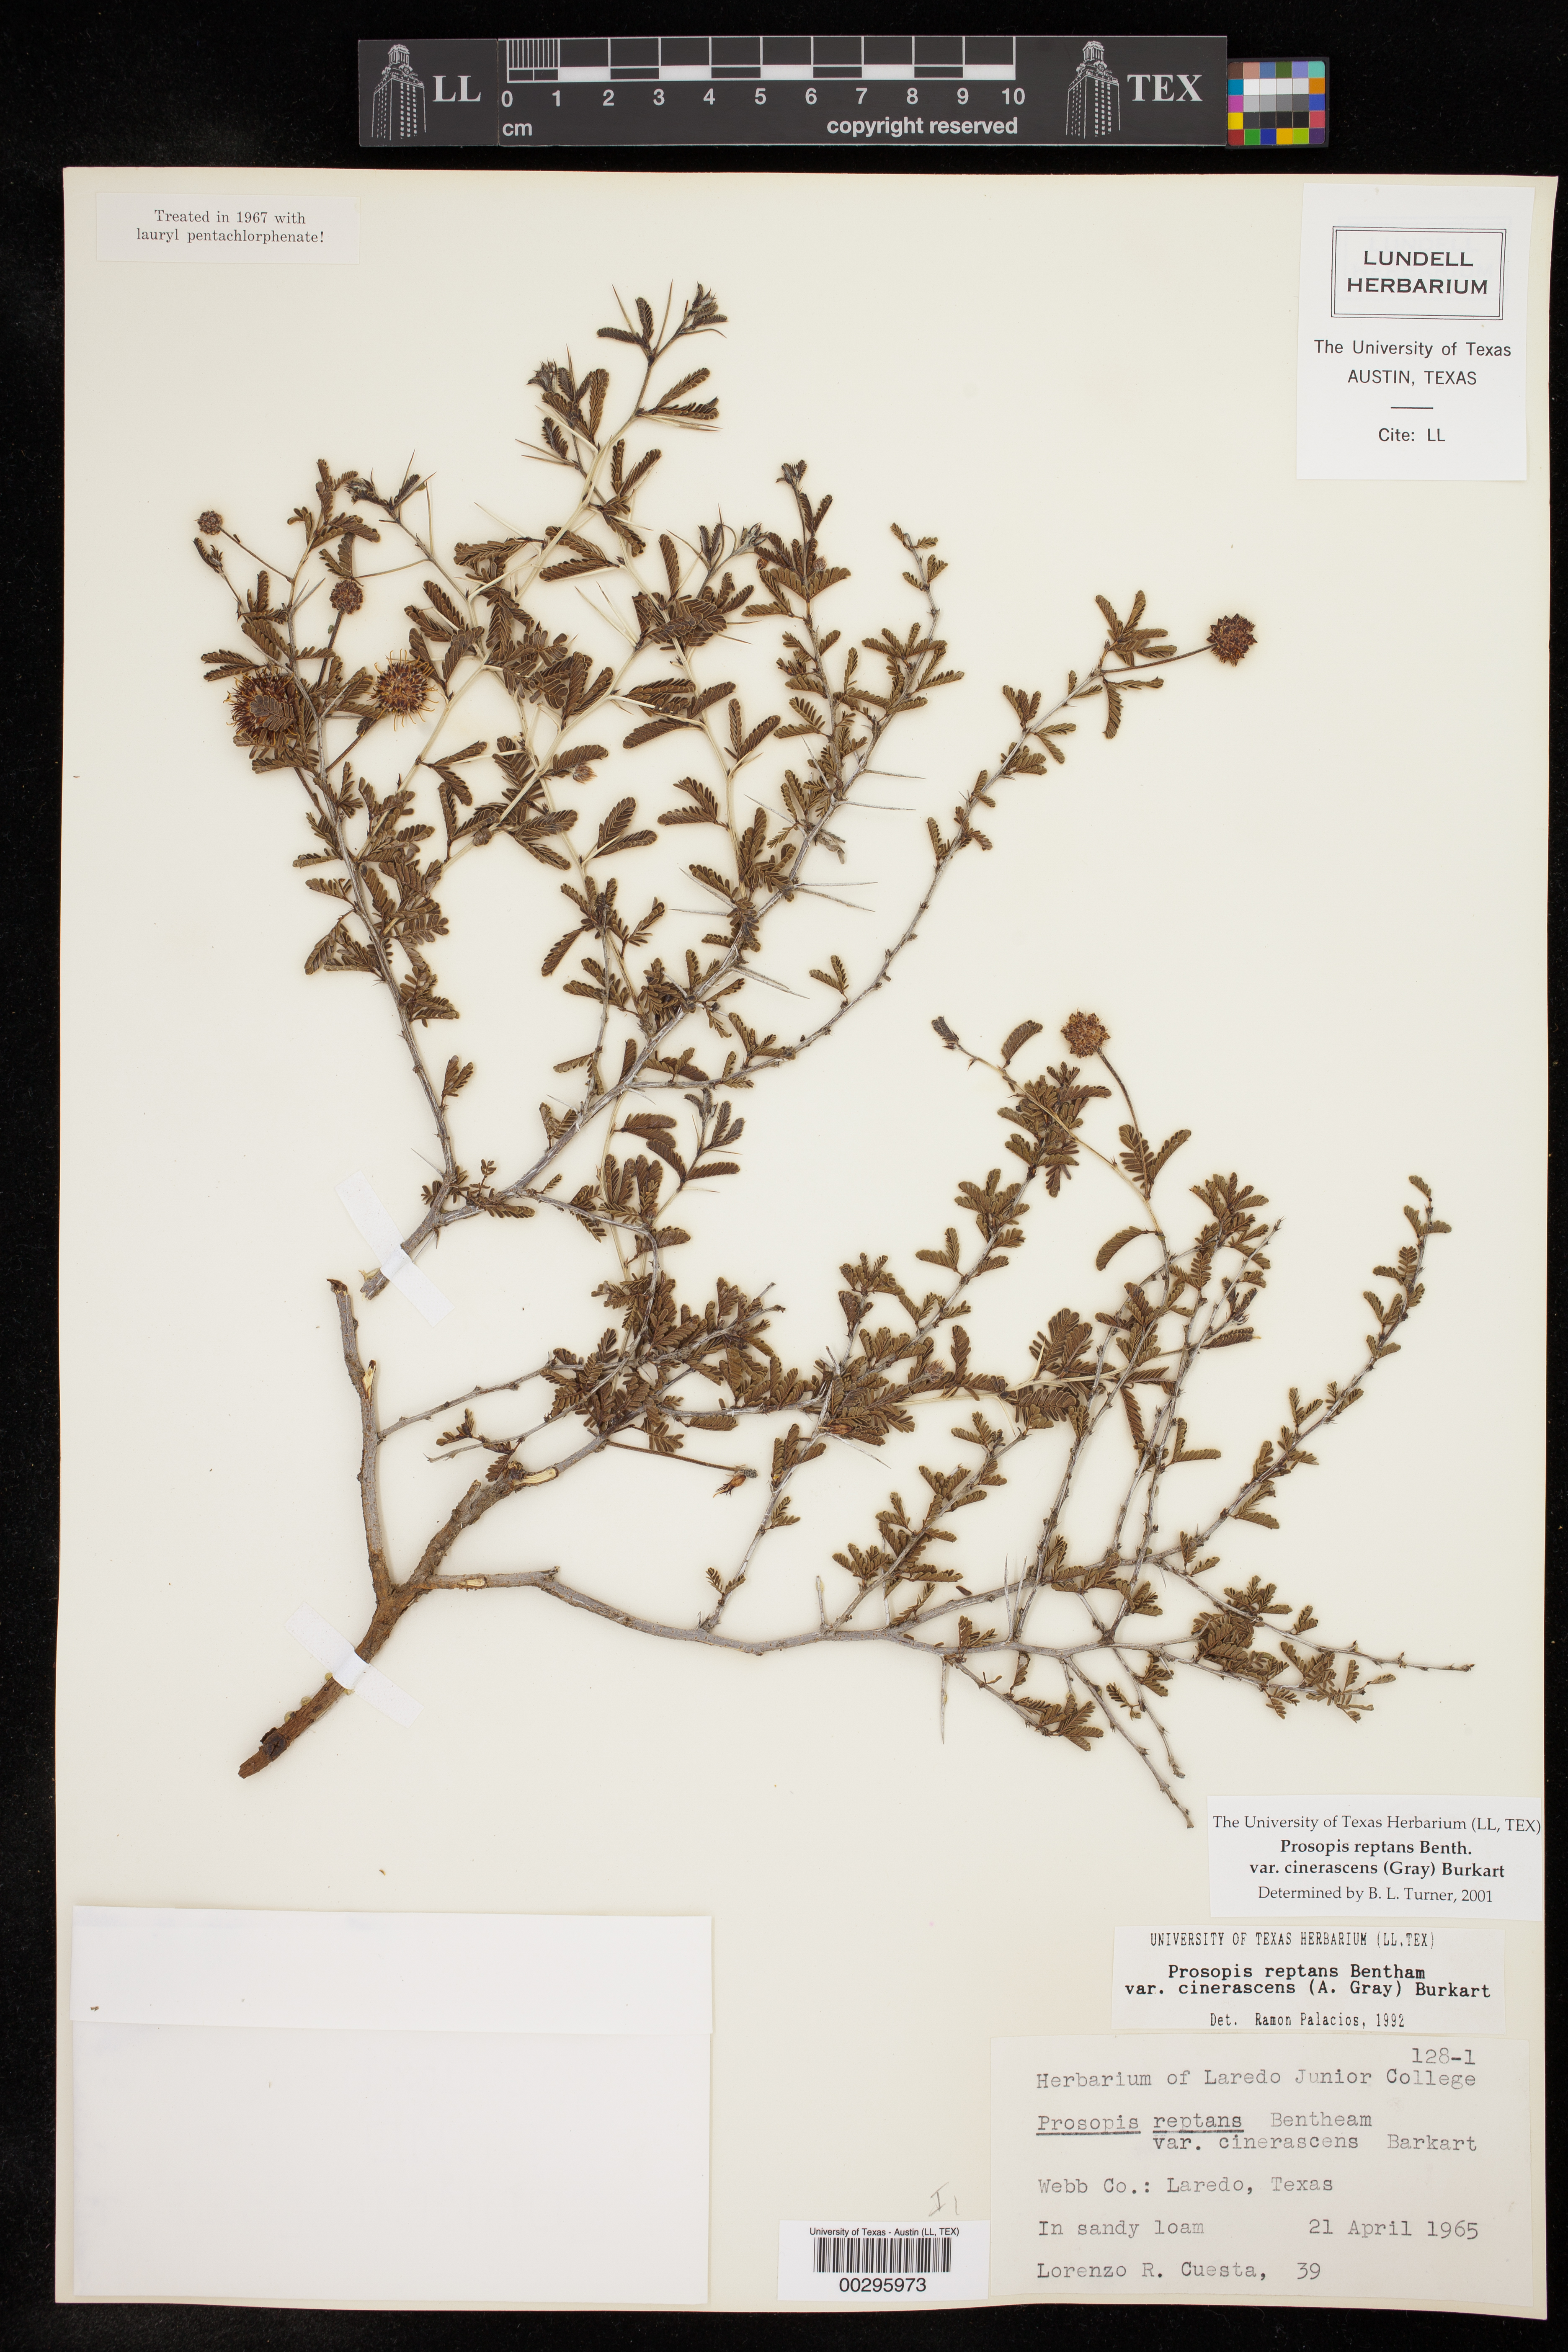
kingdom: Plantae
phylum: Tracheophyta
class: Magnoliopsida
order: Fabales
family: Fabaceae
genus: Prosopis
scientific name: Prosopis cinerascens
